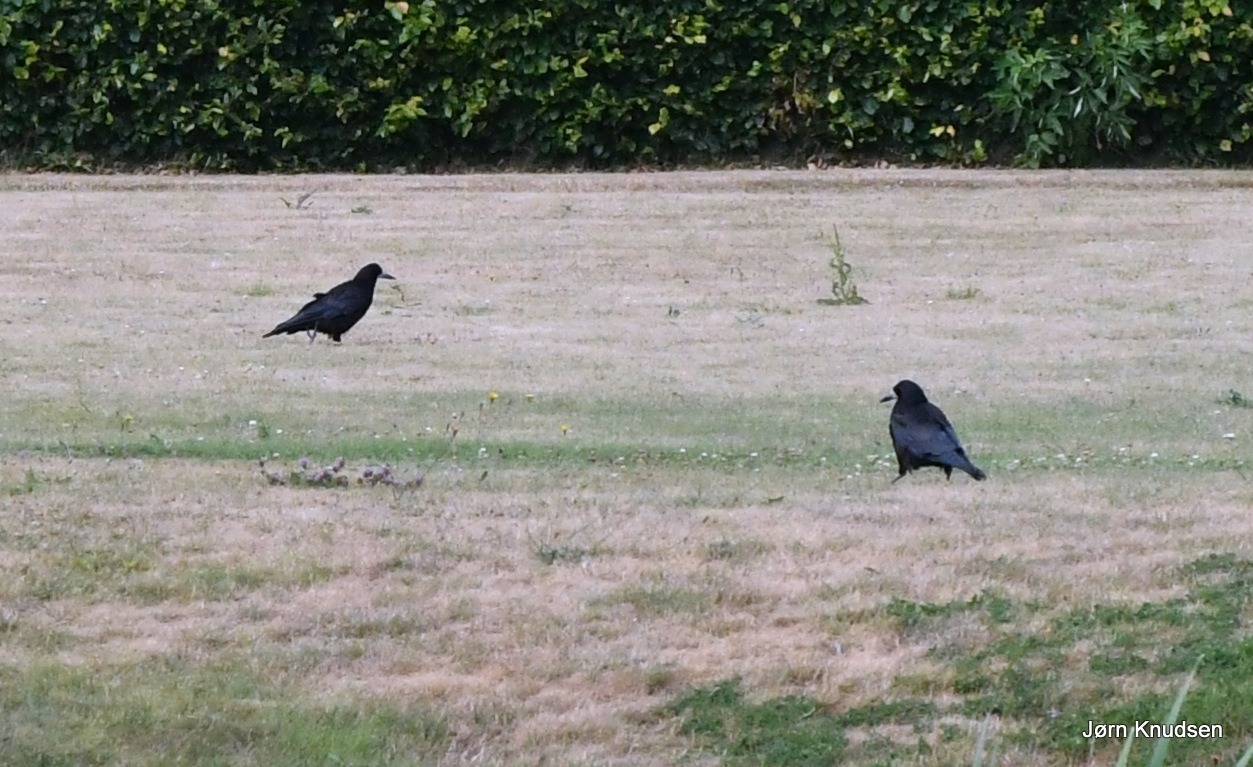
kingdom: Animalia
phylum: Chordata
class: Aves
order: Passeriformes
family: Corvidae
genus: Corvus
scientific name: Corvus frugilegus
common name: Råge
